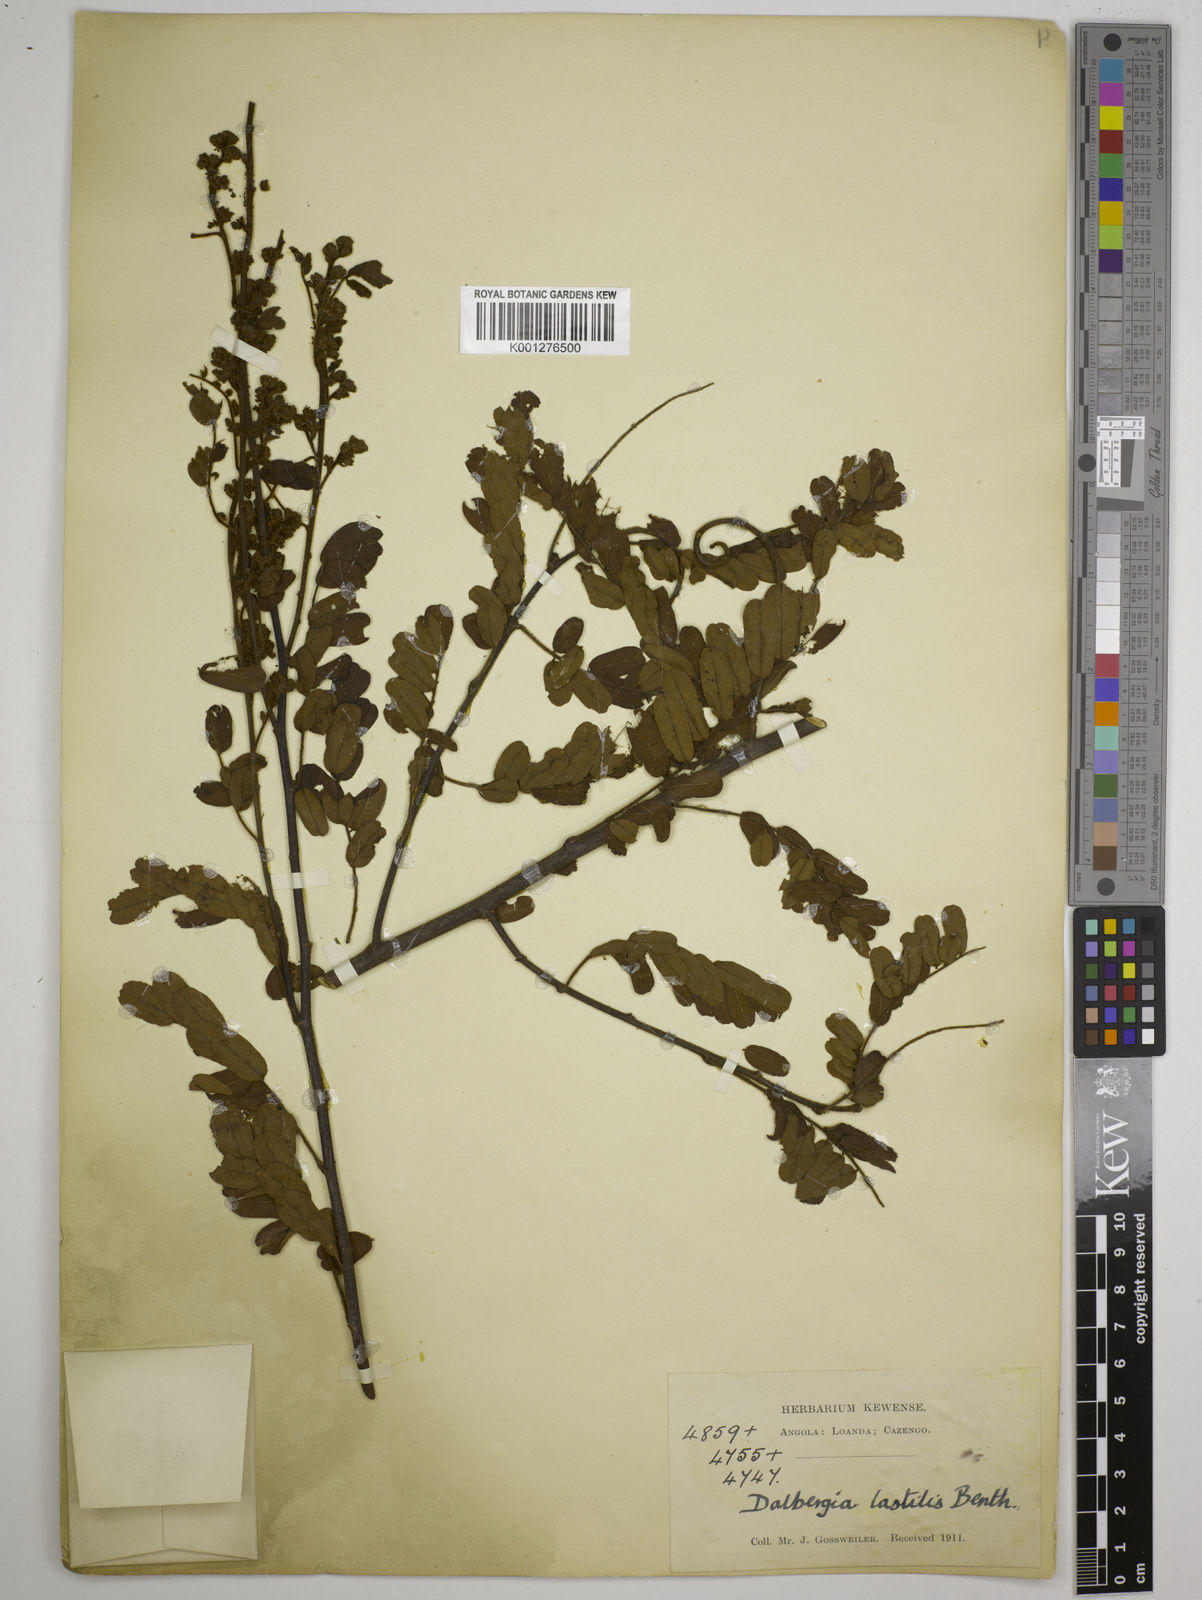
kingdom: Plantae
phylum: Tracheophyta
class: Magnoliopsida
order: Fabales
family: Fabaceae
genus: Dalbergia
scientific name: Dalbergia hostilis
